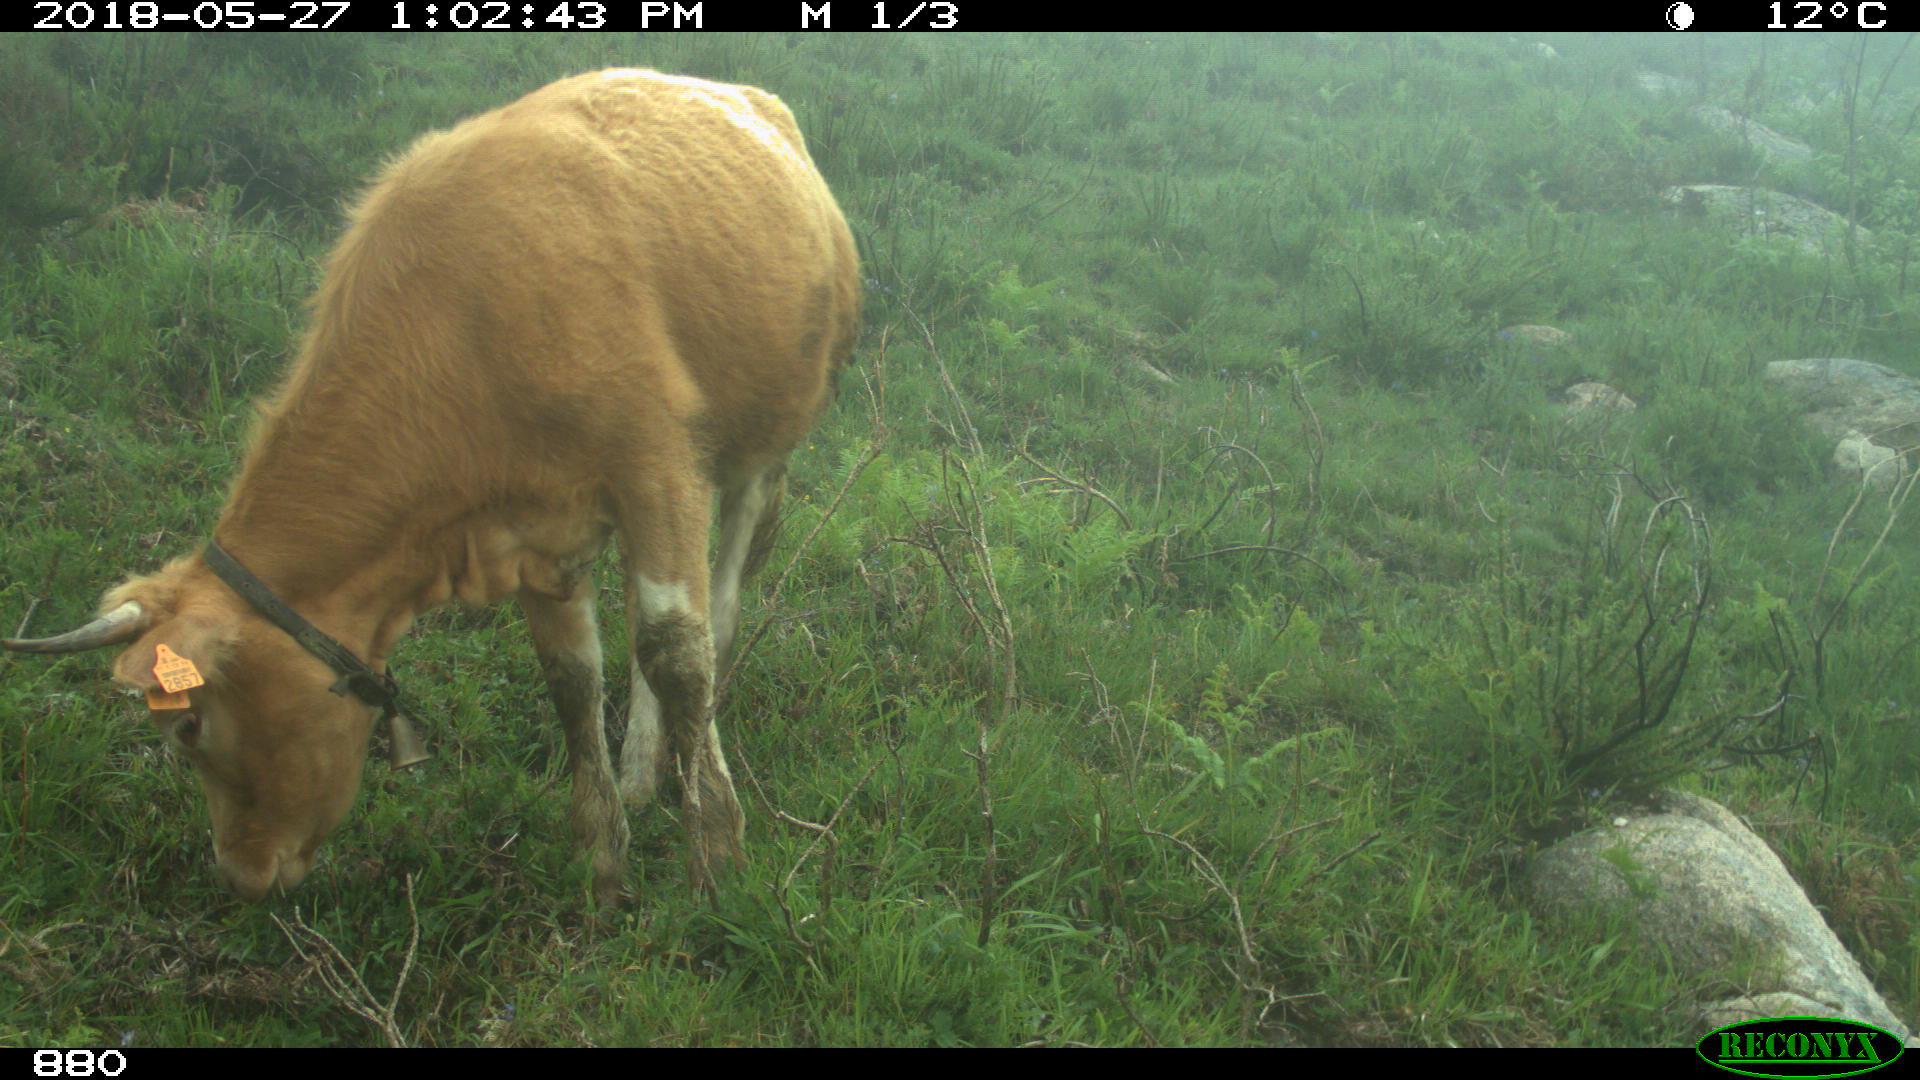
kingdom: Animalia
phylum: Chordata
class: Mammalia
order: Artiodactyla
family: Bovidae
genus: Bos
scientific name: Bos taurus
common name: Domesticated cattle
